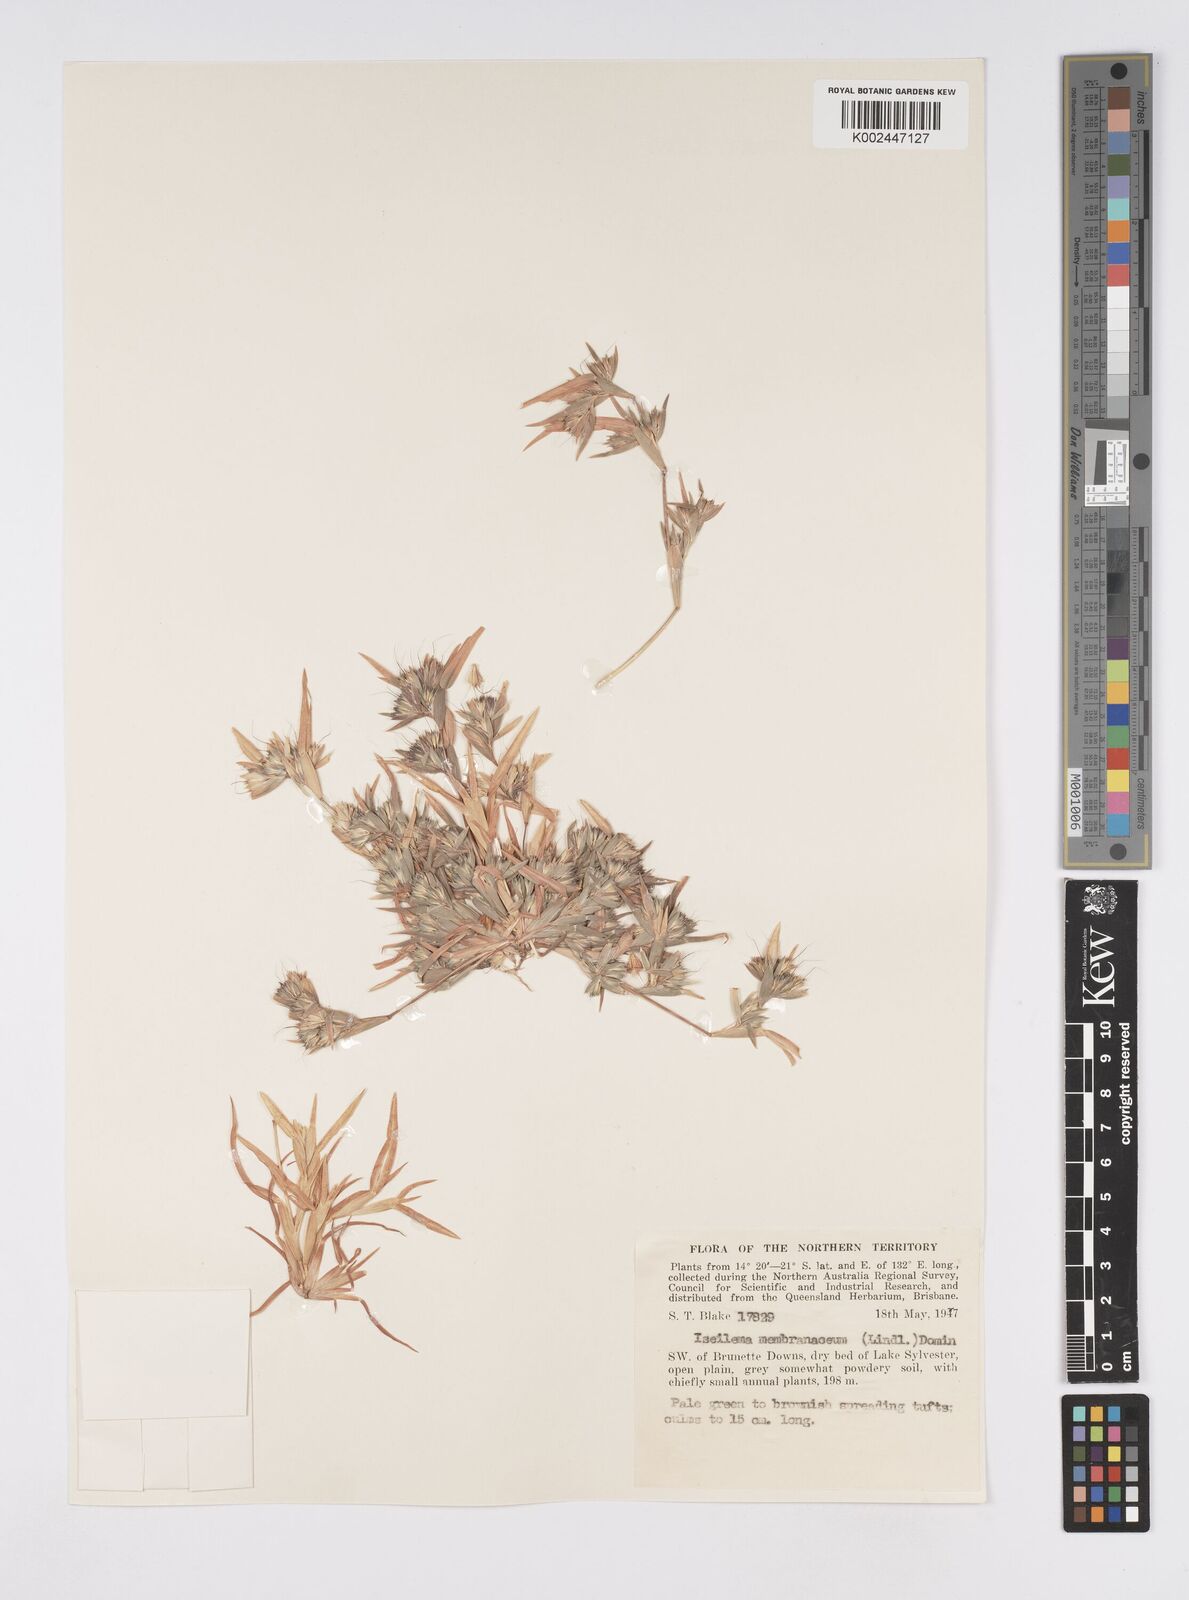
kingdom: Plantae
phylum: Tracheophyta
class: Liliopsida
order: Poales
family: Poaceae
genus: Iseilema
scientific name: Iseilema membranaceum
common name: Small flinders grass
